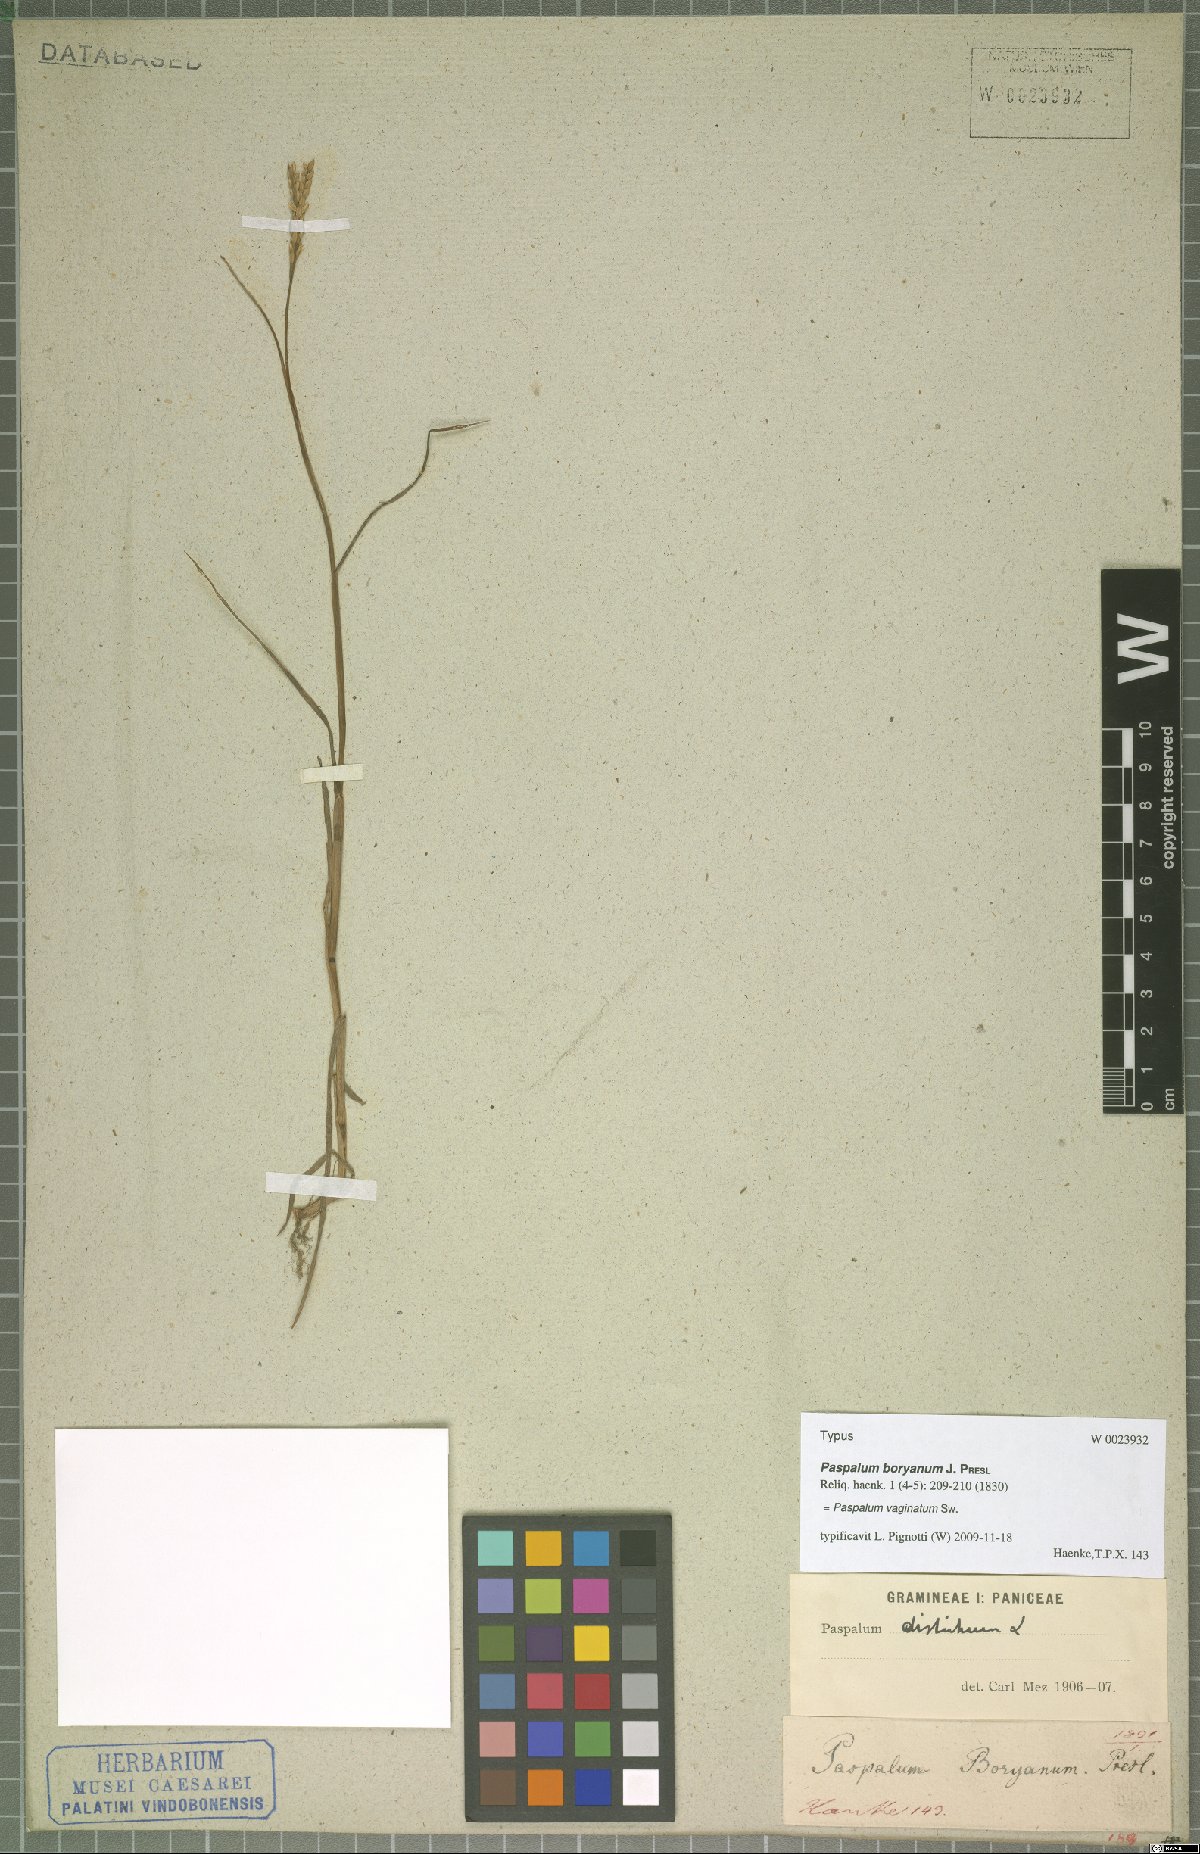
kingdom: Plantae
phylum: Tracheophyta
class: Liliopsida
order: Poales
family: Poaceae
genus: Paspalum
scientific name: Paspalum vaginatum
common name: Seashore paspalum
